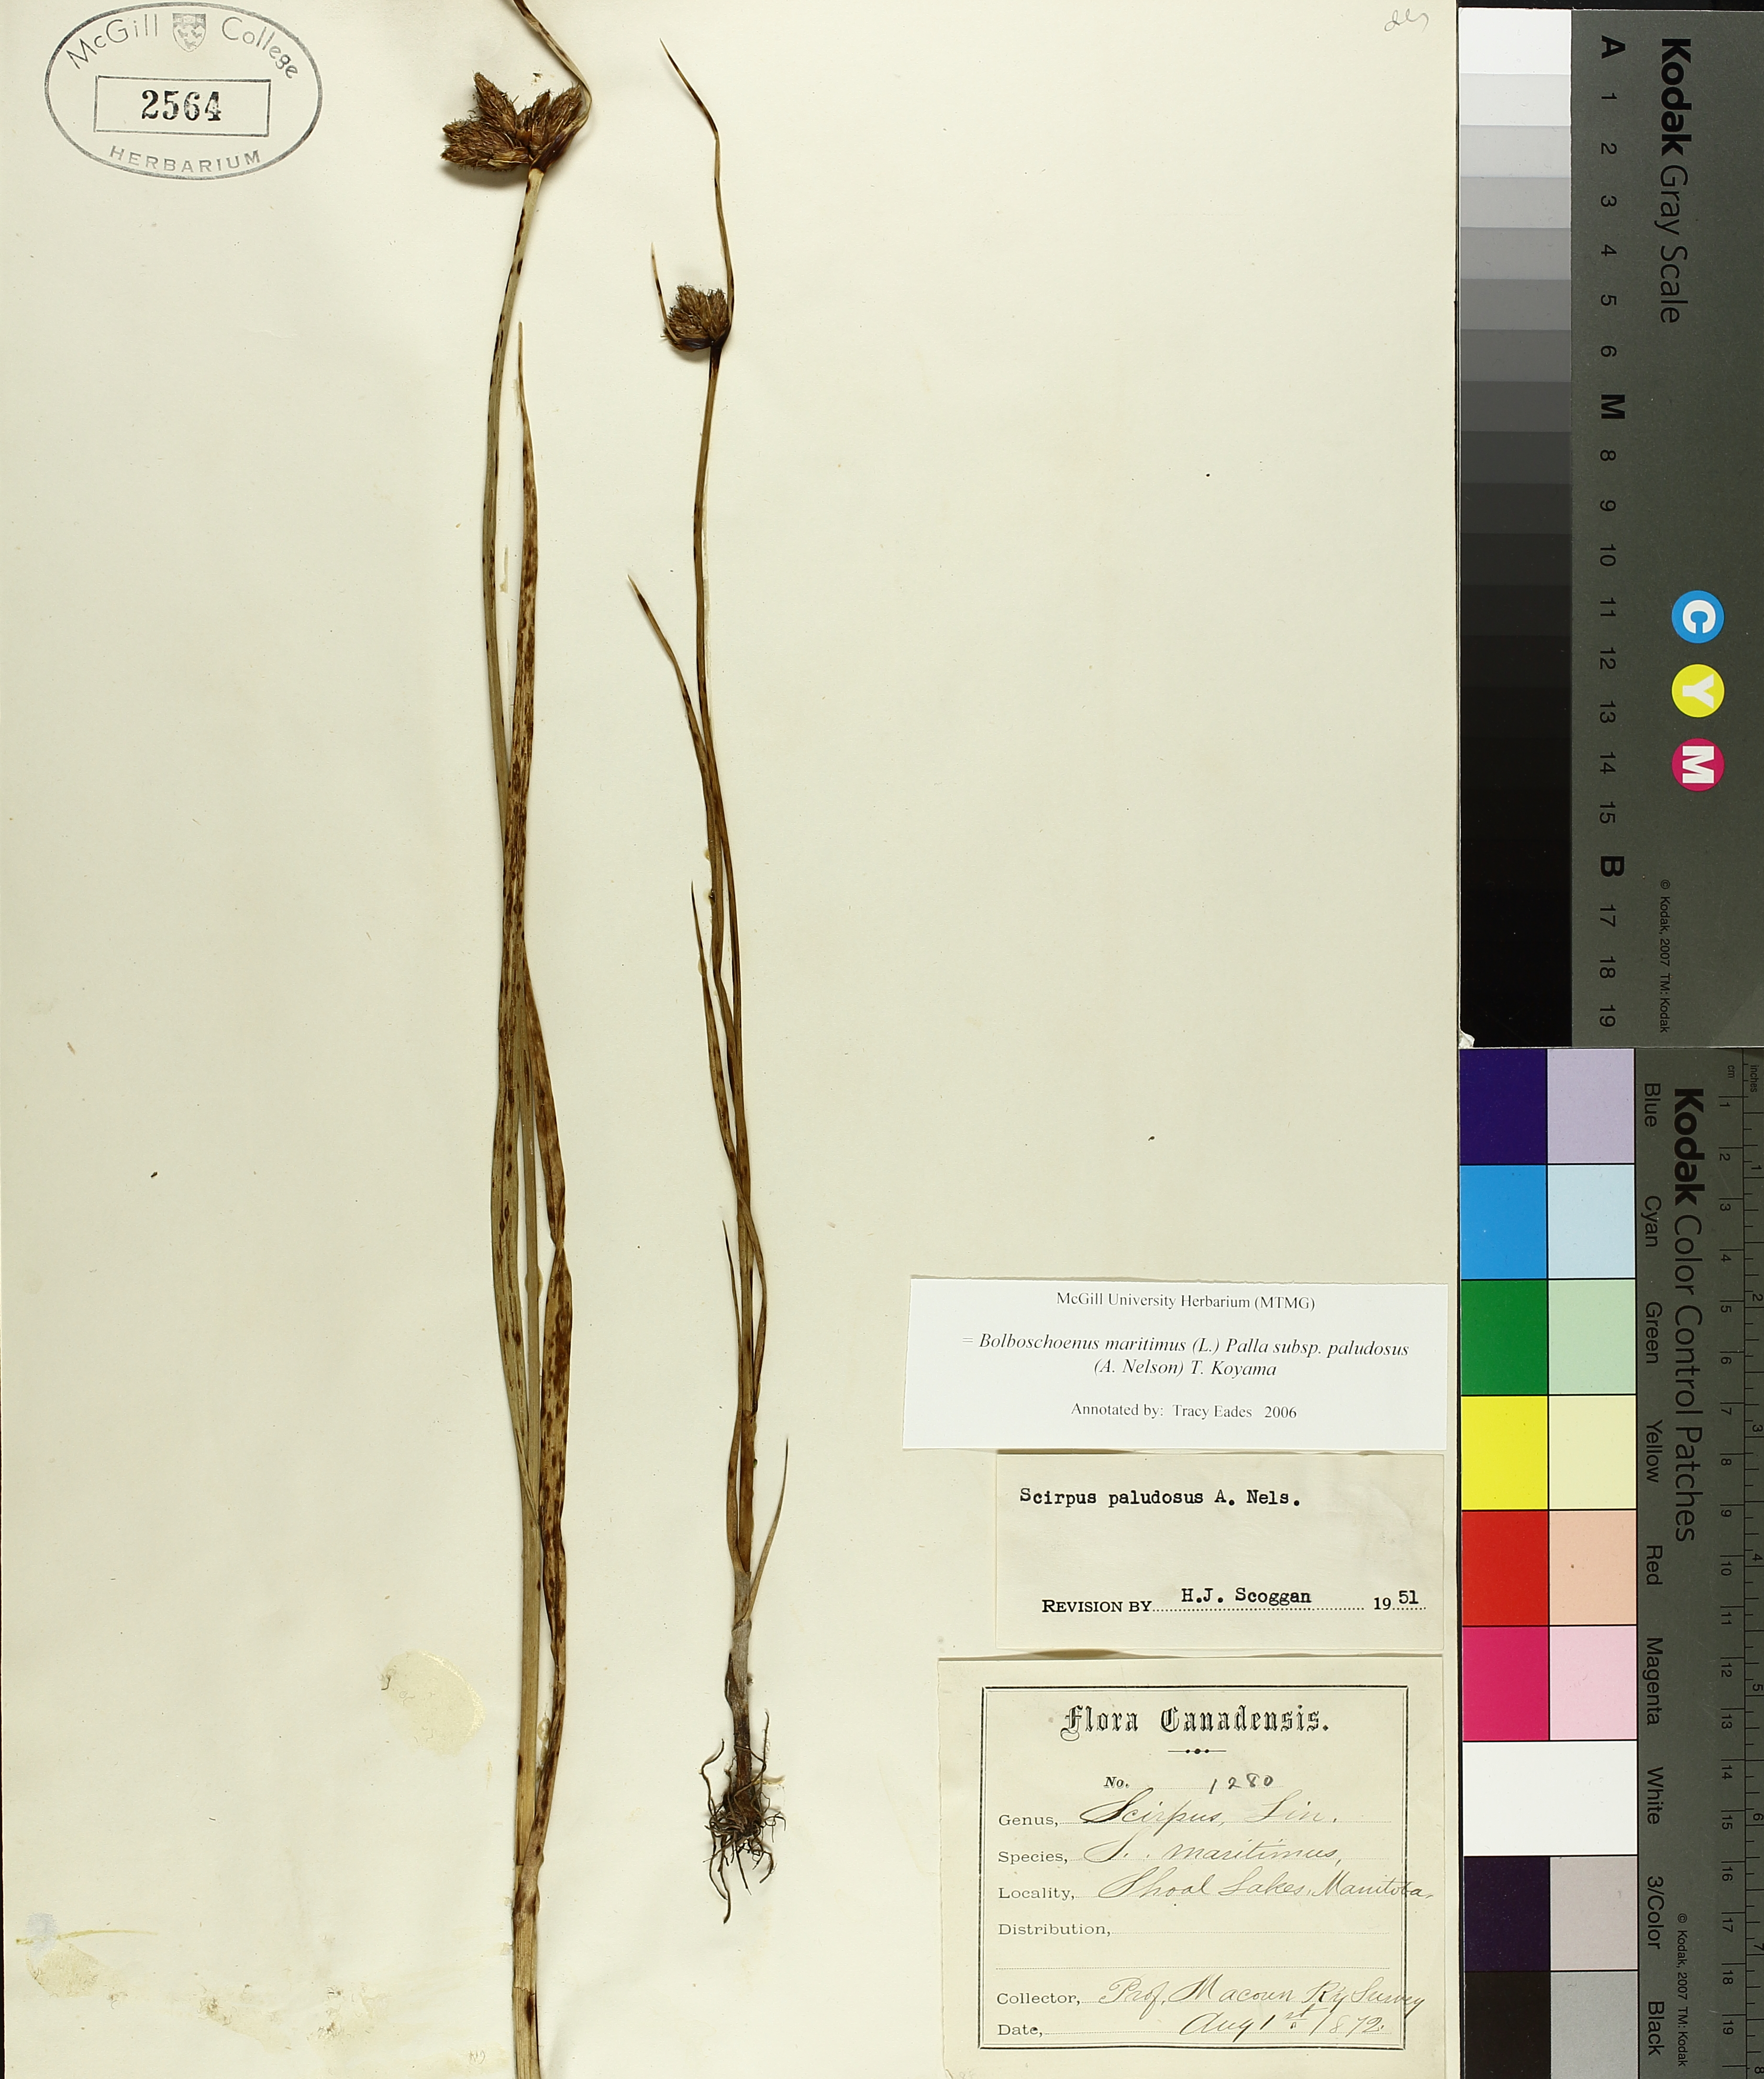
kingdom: Plantae
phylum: Tracheophyta
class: Liliopsida
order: Poales
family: Cyperaceae
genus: Bolboschoenus
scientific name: Bolboschoenus maritimus
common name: Sea club-rush
